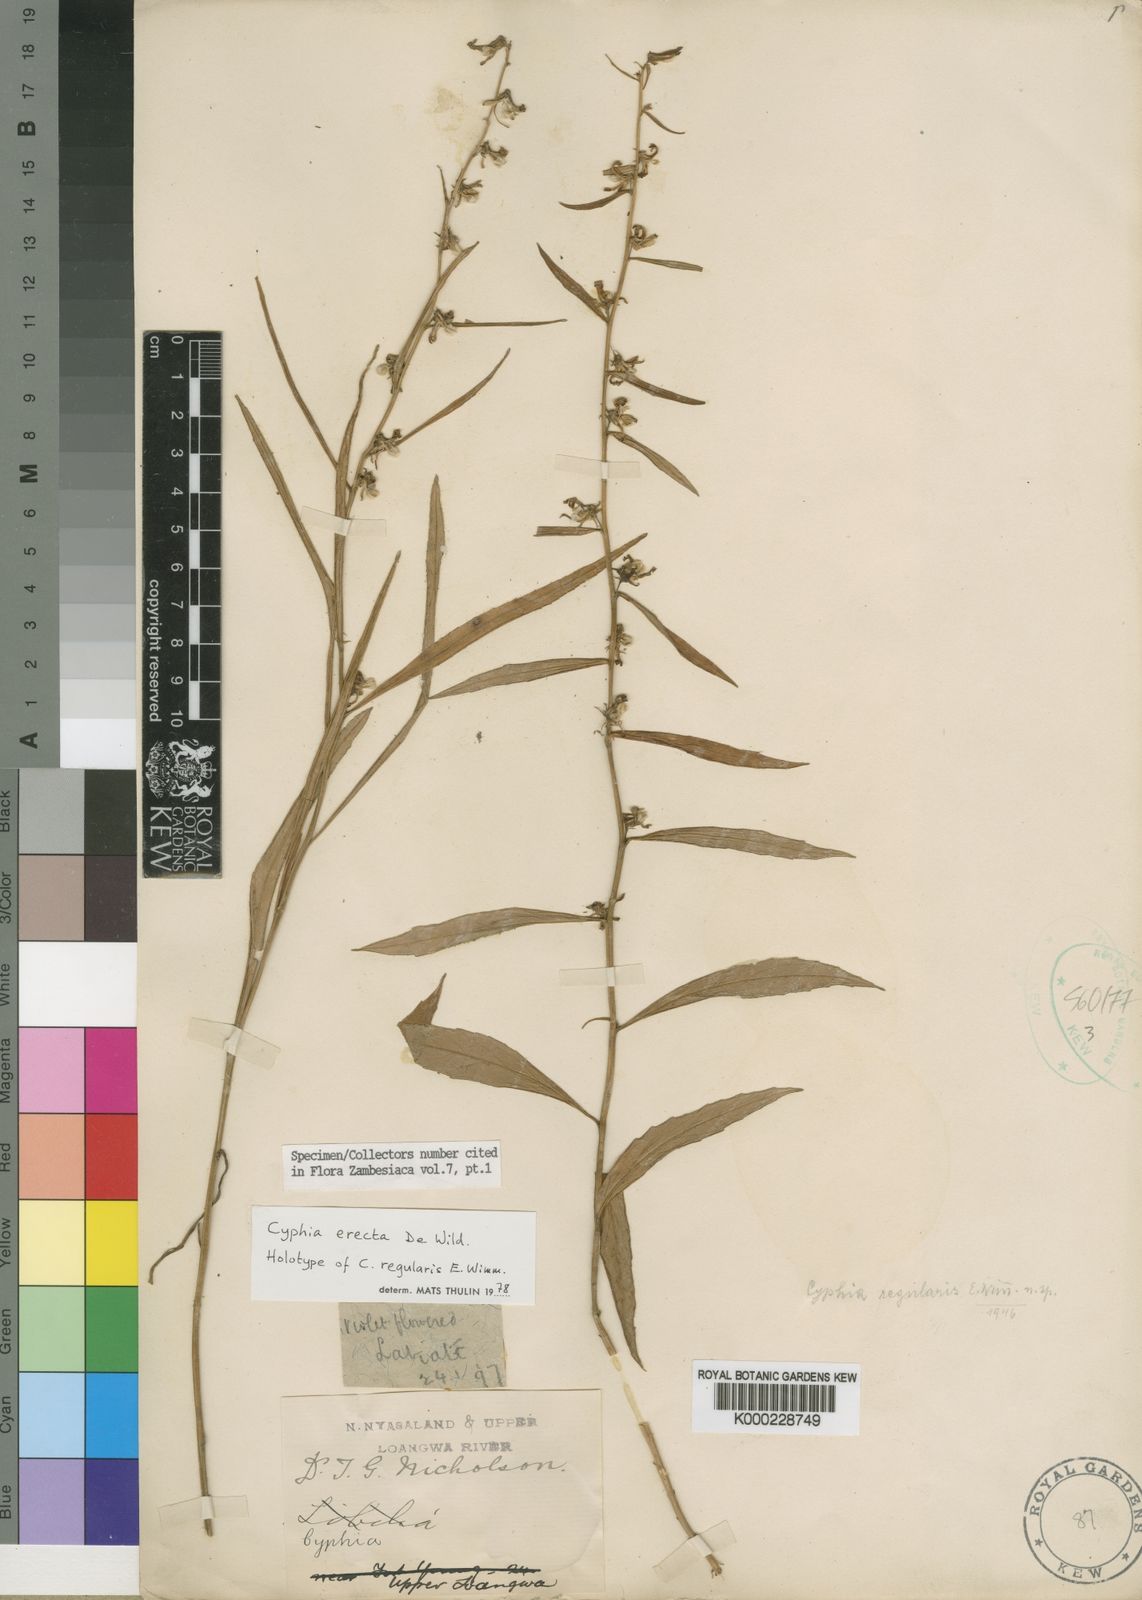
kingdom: Plantae
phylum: Tracheophyta
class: Magnoliopsida
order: Asterales
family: Campanulaceae
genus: Cyphia
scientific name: Cyphia erecta
